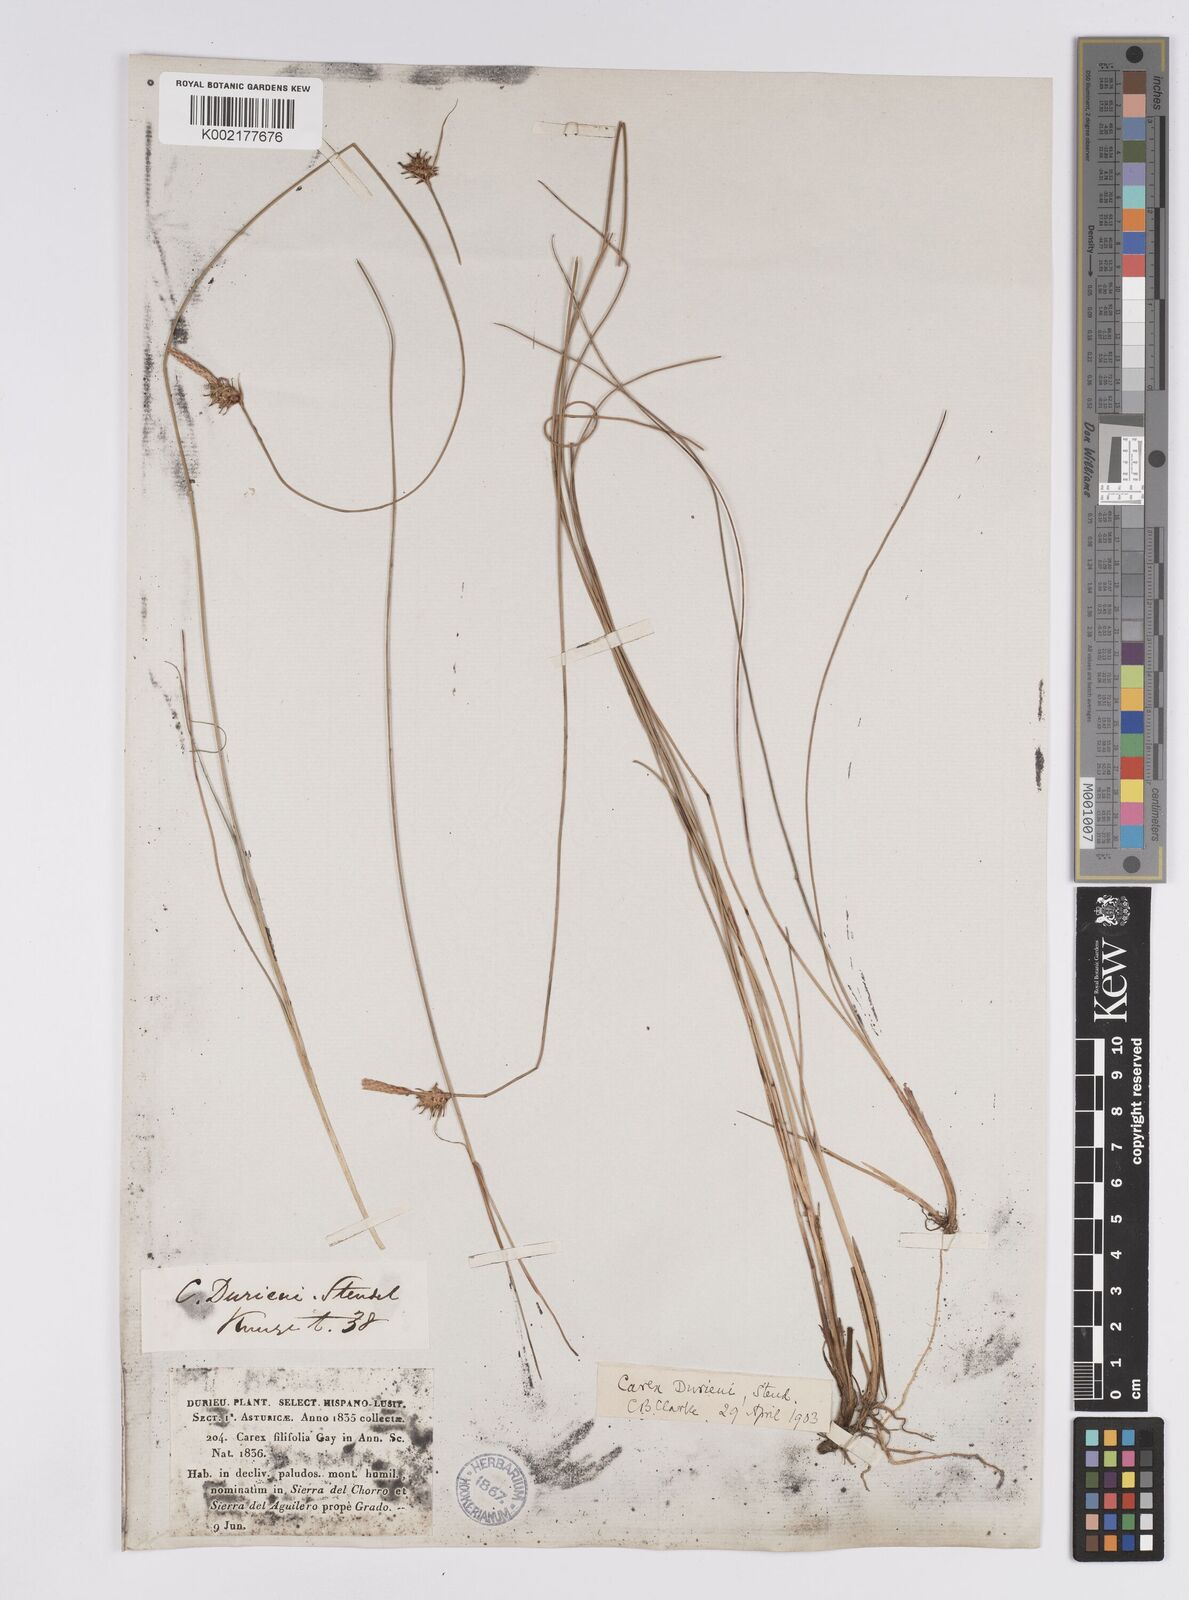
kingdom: Plantae
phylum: Tracheophyta
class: Liliopsida
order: Poales
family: Cyperaceae
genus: Carex
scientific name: Carex durieui
